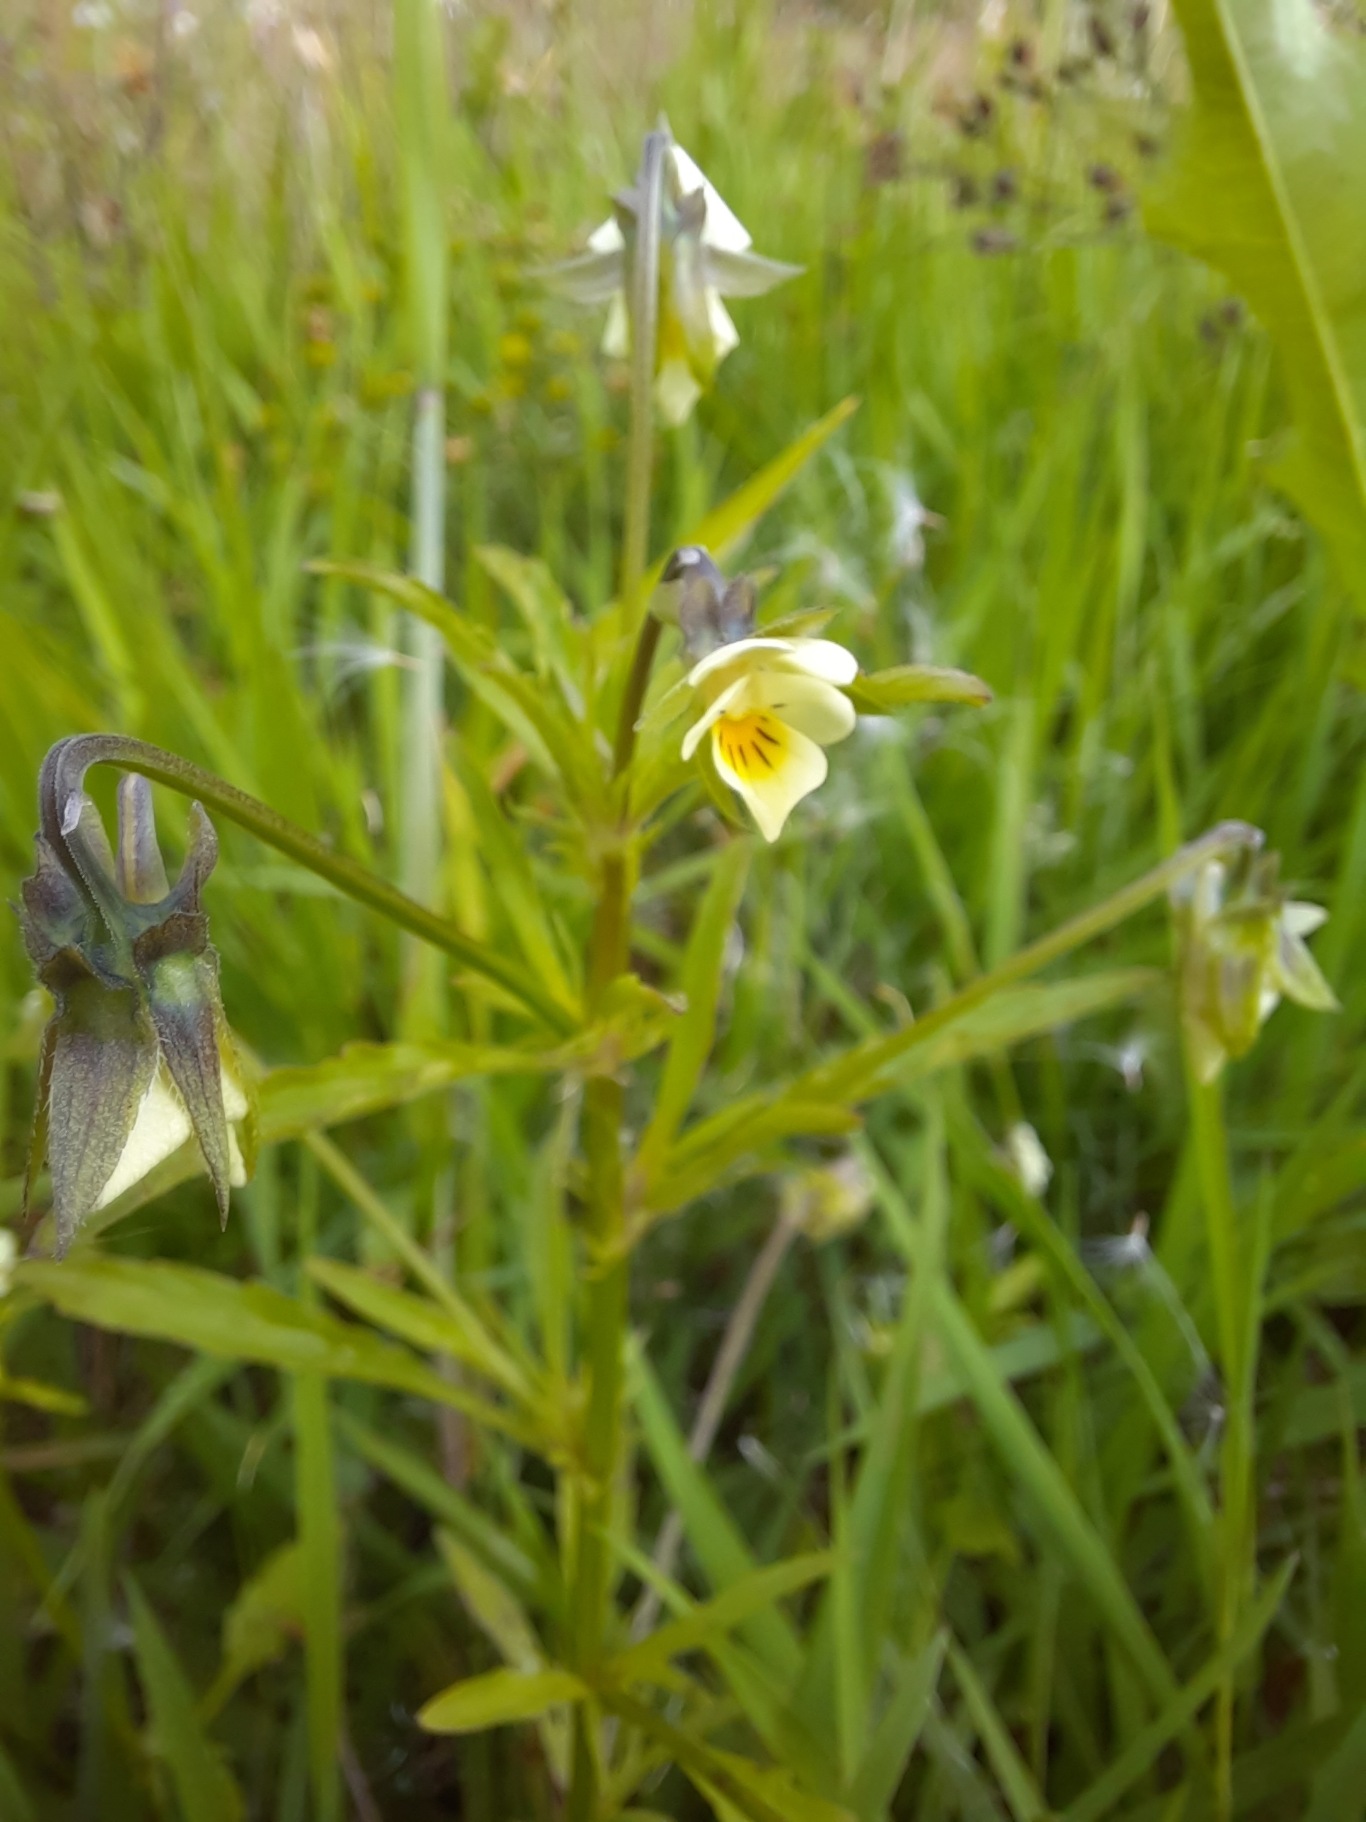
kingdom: Plantae
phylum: Tracheophyta
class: Magnoliopsida
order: Malpighiales
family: Violaceae
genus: Viola
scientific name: Viola arvensis
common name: Ager-stedmoderblomst
